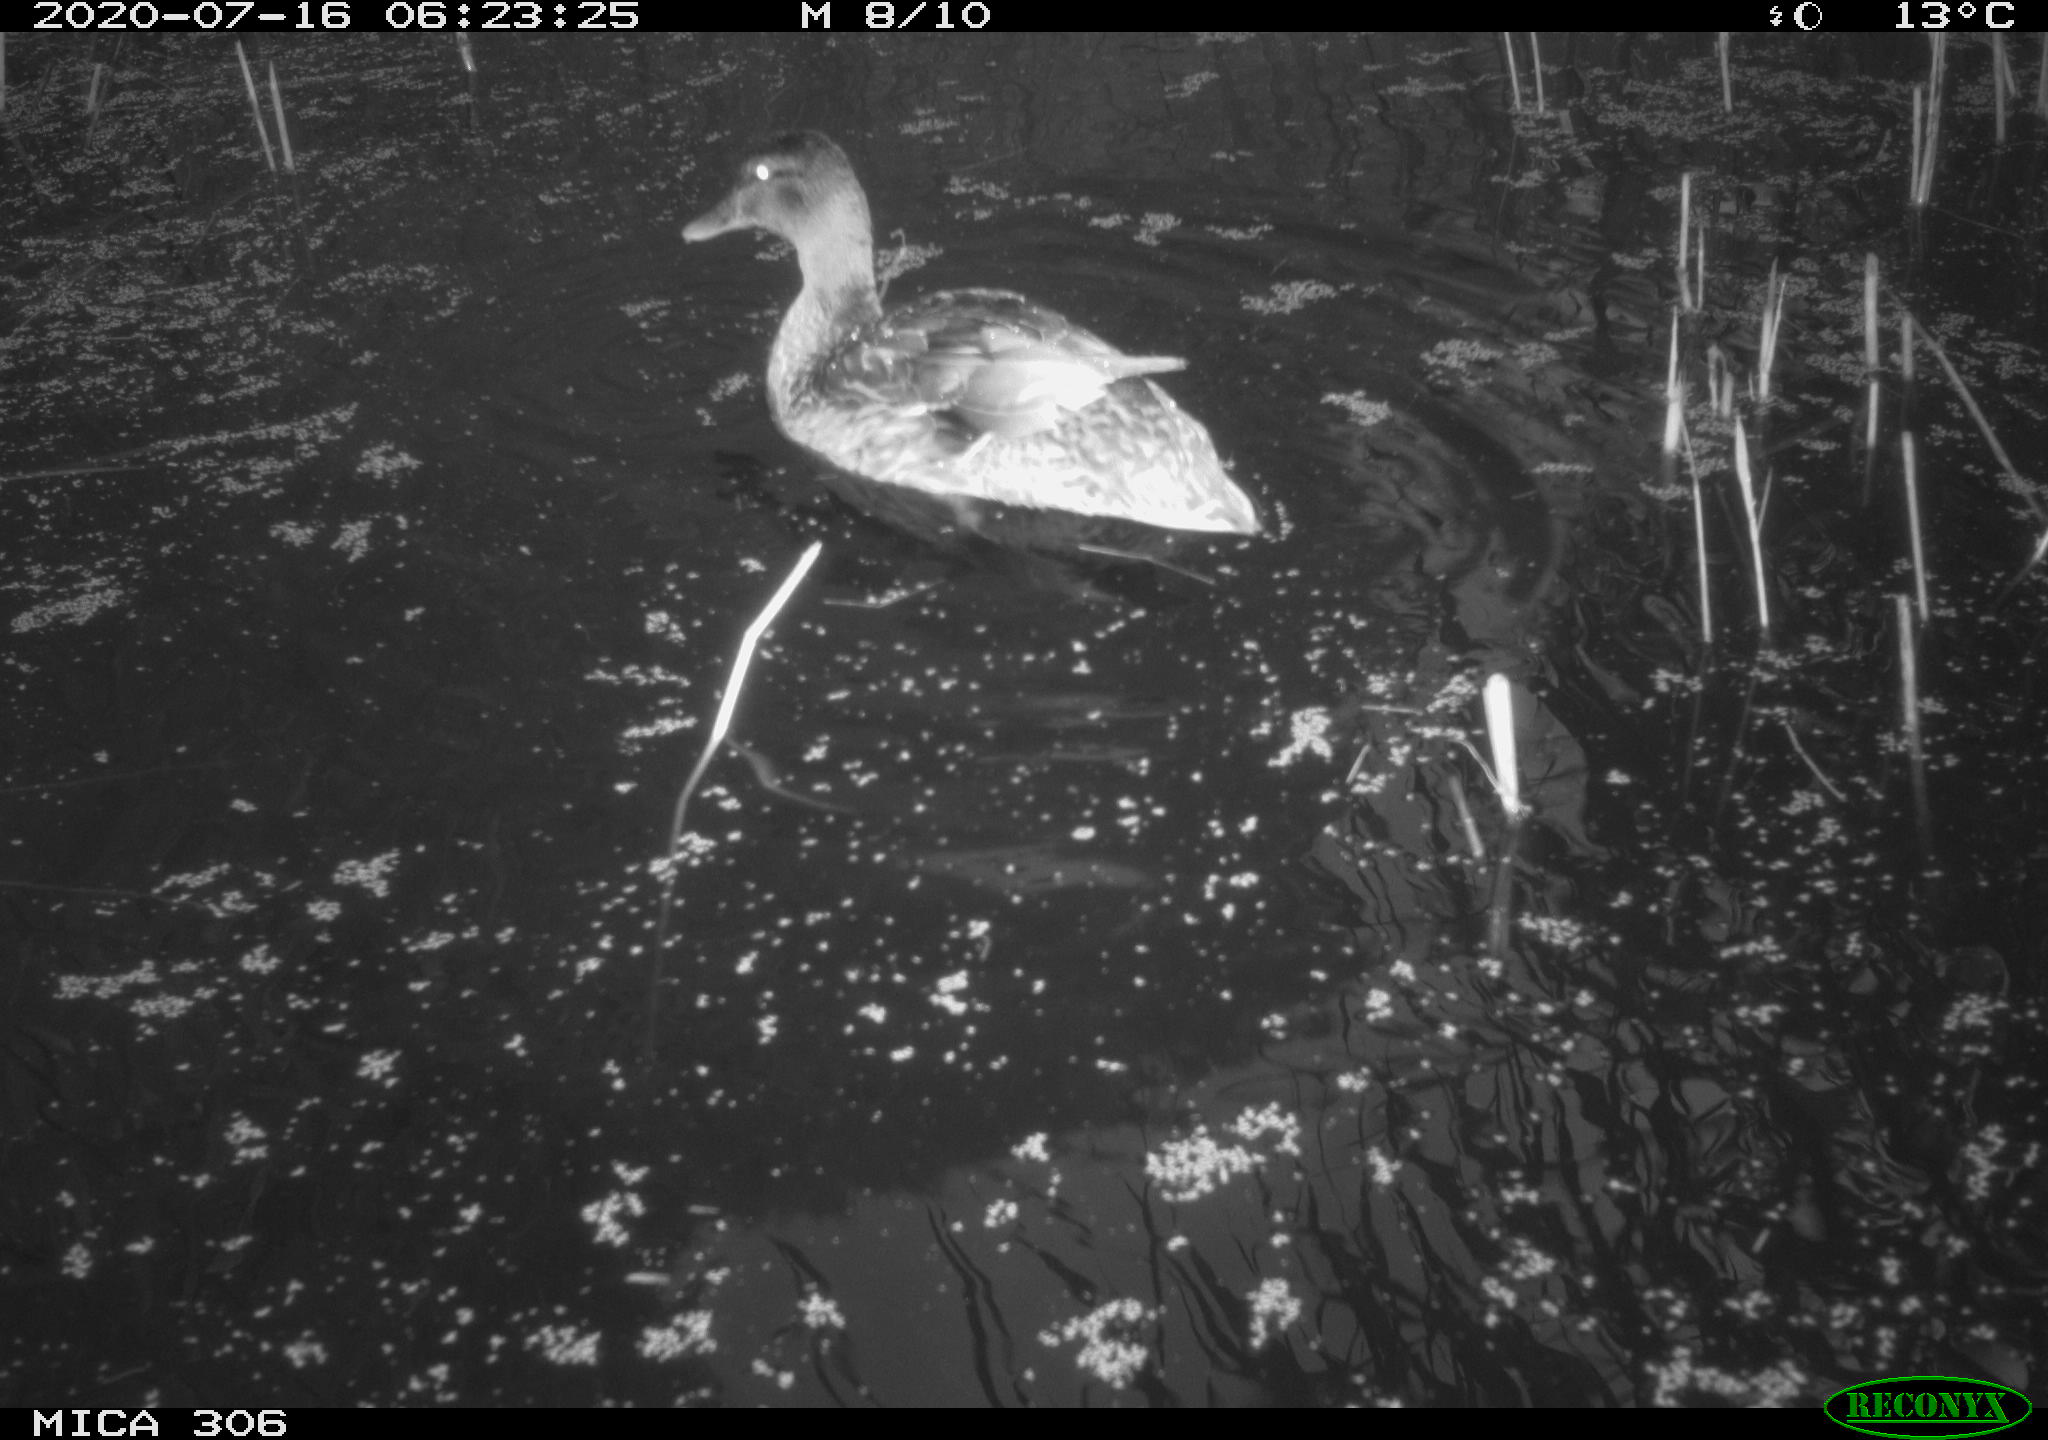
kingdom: Animalia
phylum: Chordata
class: Aves
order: Anseriformes
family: Anatidae
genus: Anas
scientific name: Anas platyrhynchos
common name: Mallard
